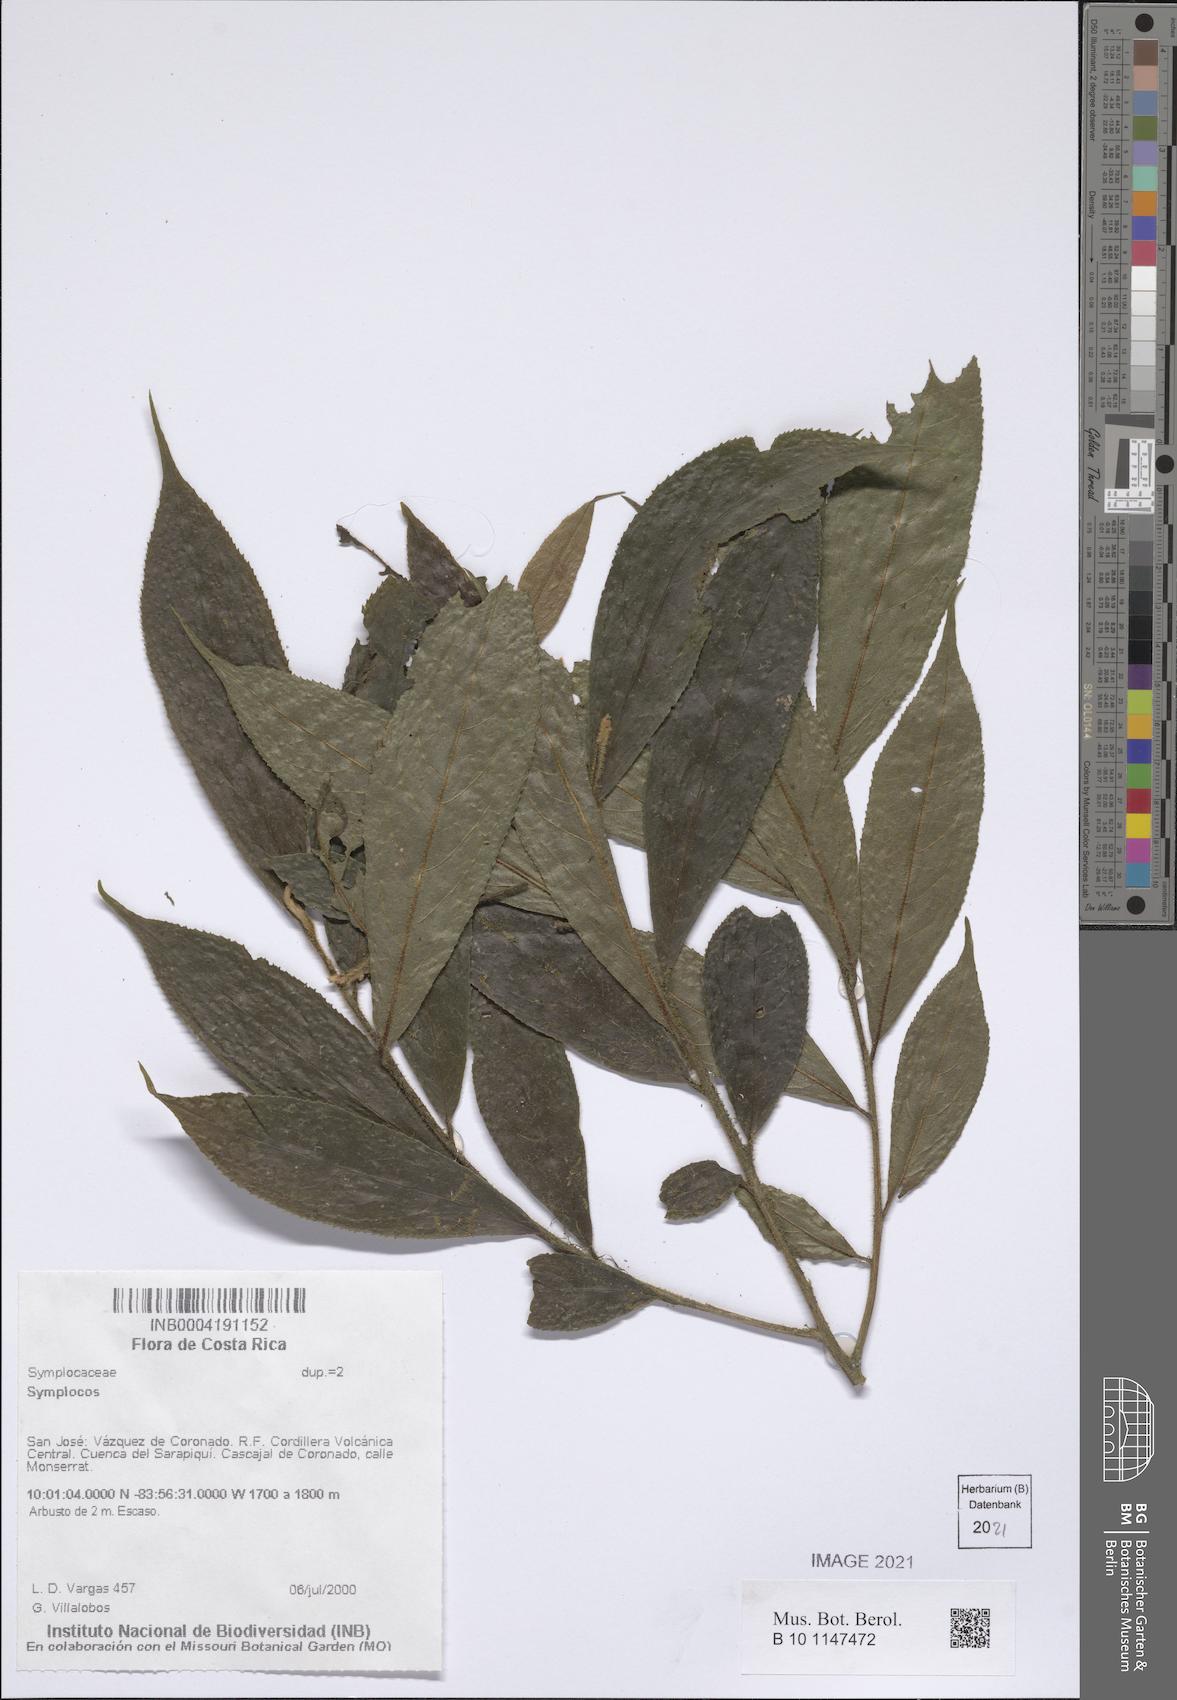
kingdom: Plantae
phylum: Tracheophyta
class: Magnoliopsida
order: Ericales
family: Symplocaceae
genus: Symplocos
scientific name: Symplocos
